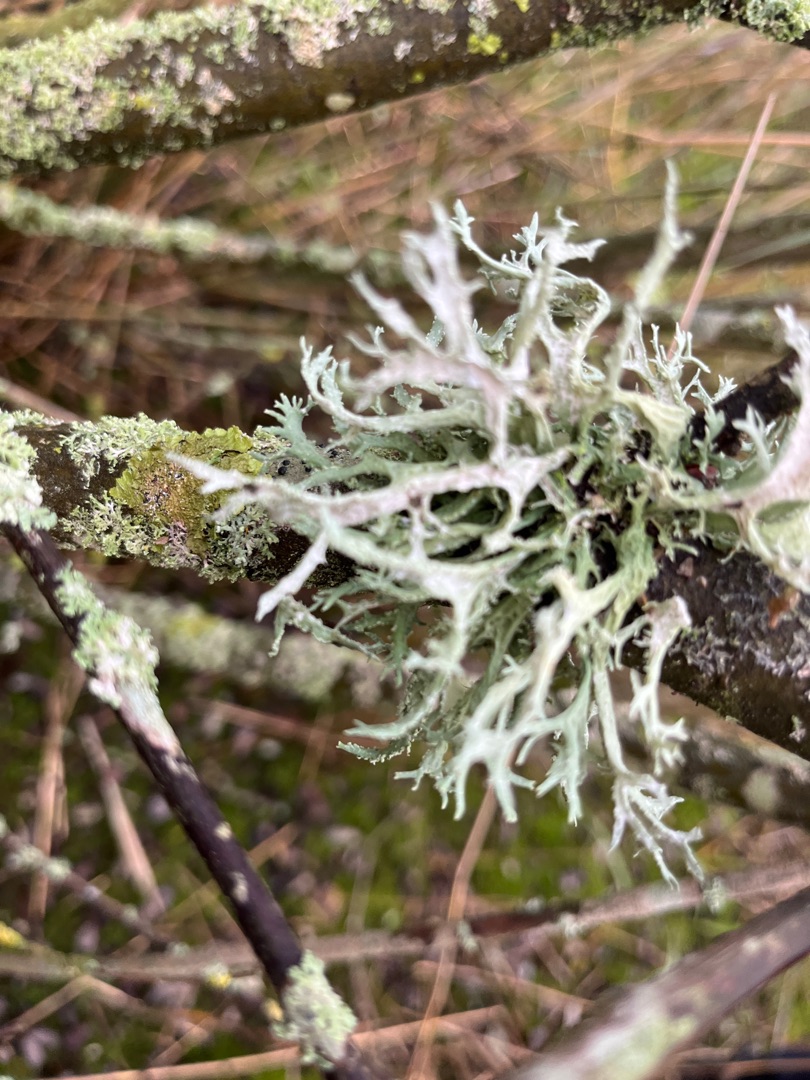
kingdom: Fungi
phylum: Ascomycota
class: Lecanoromycetes
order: Lecanorales
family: Parmeliaceae
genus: Evernia
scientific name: Evernia prunastri
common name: Almindelig slåenlav
